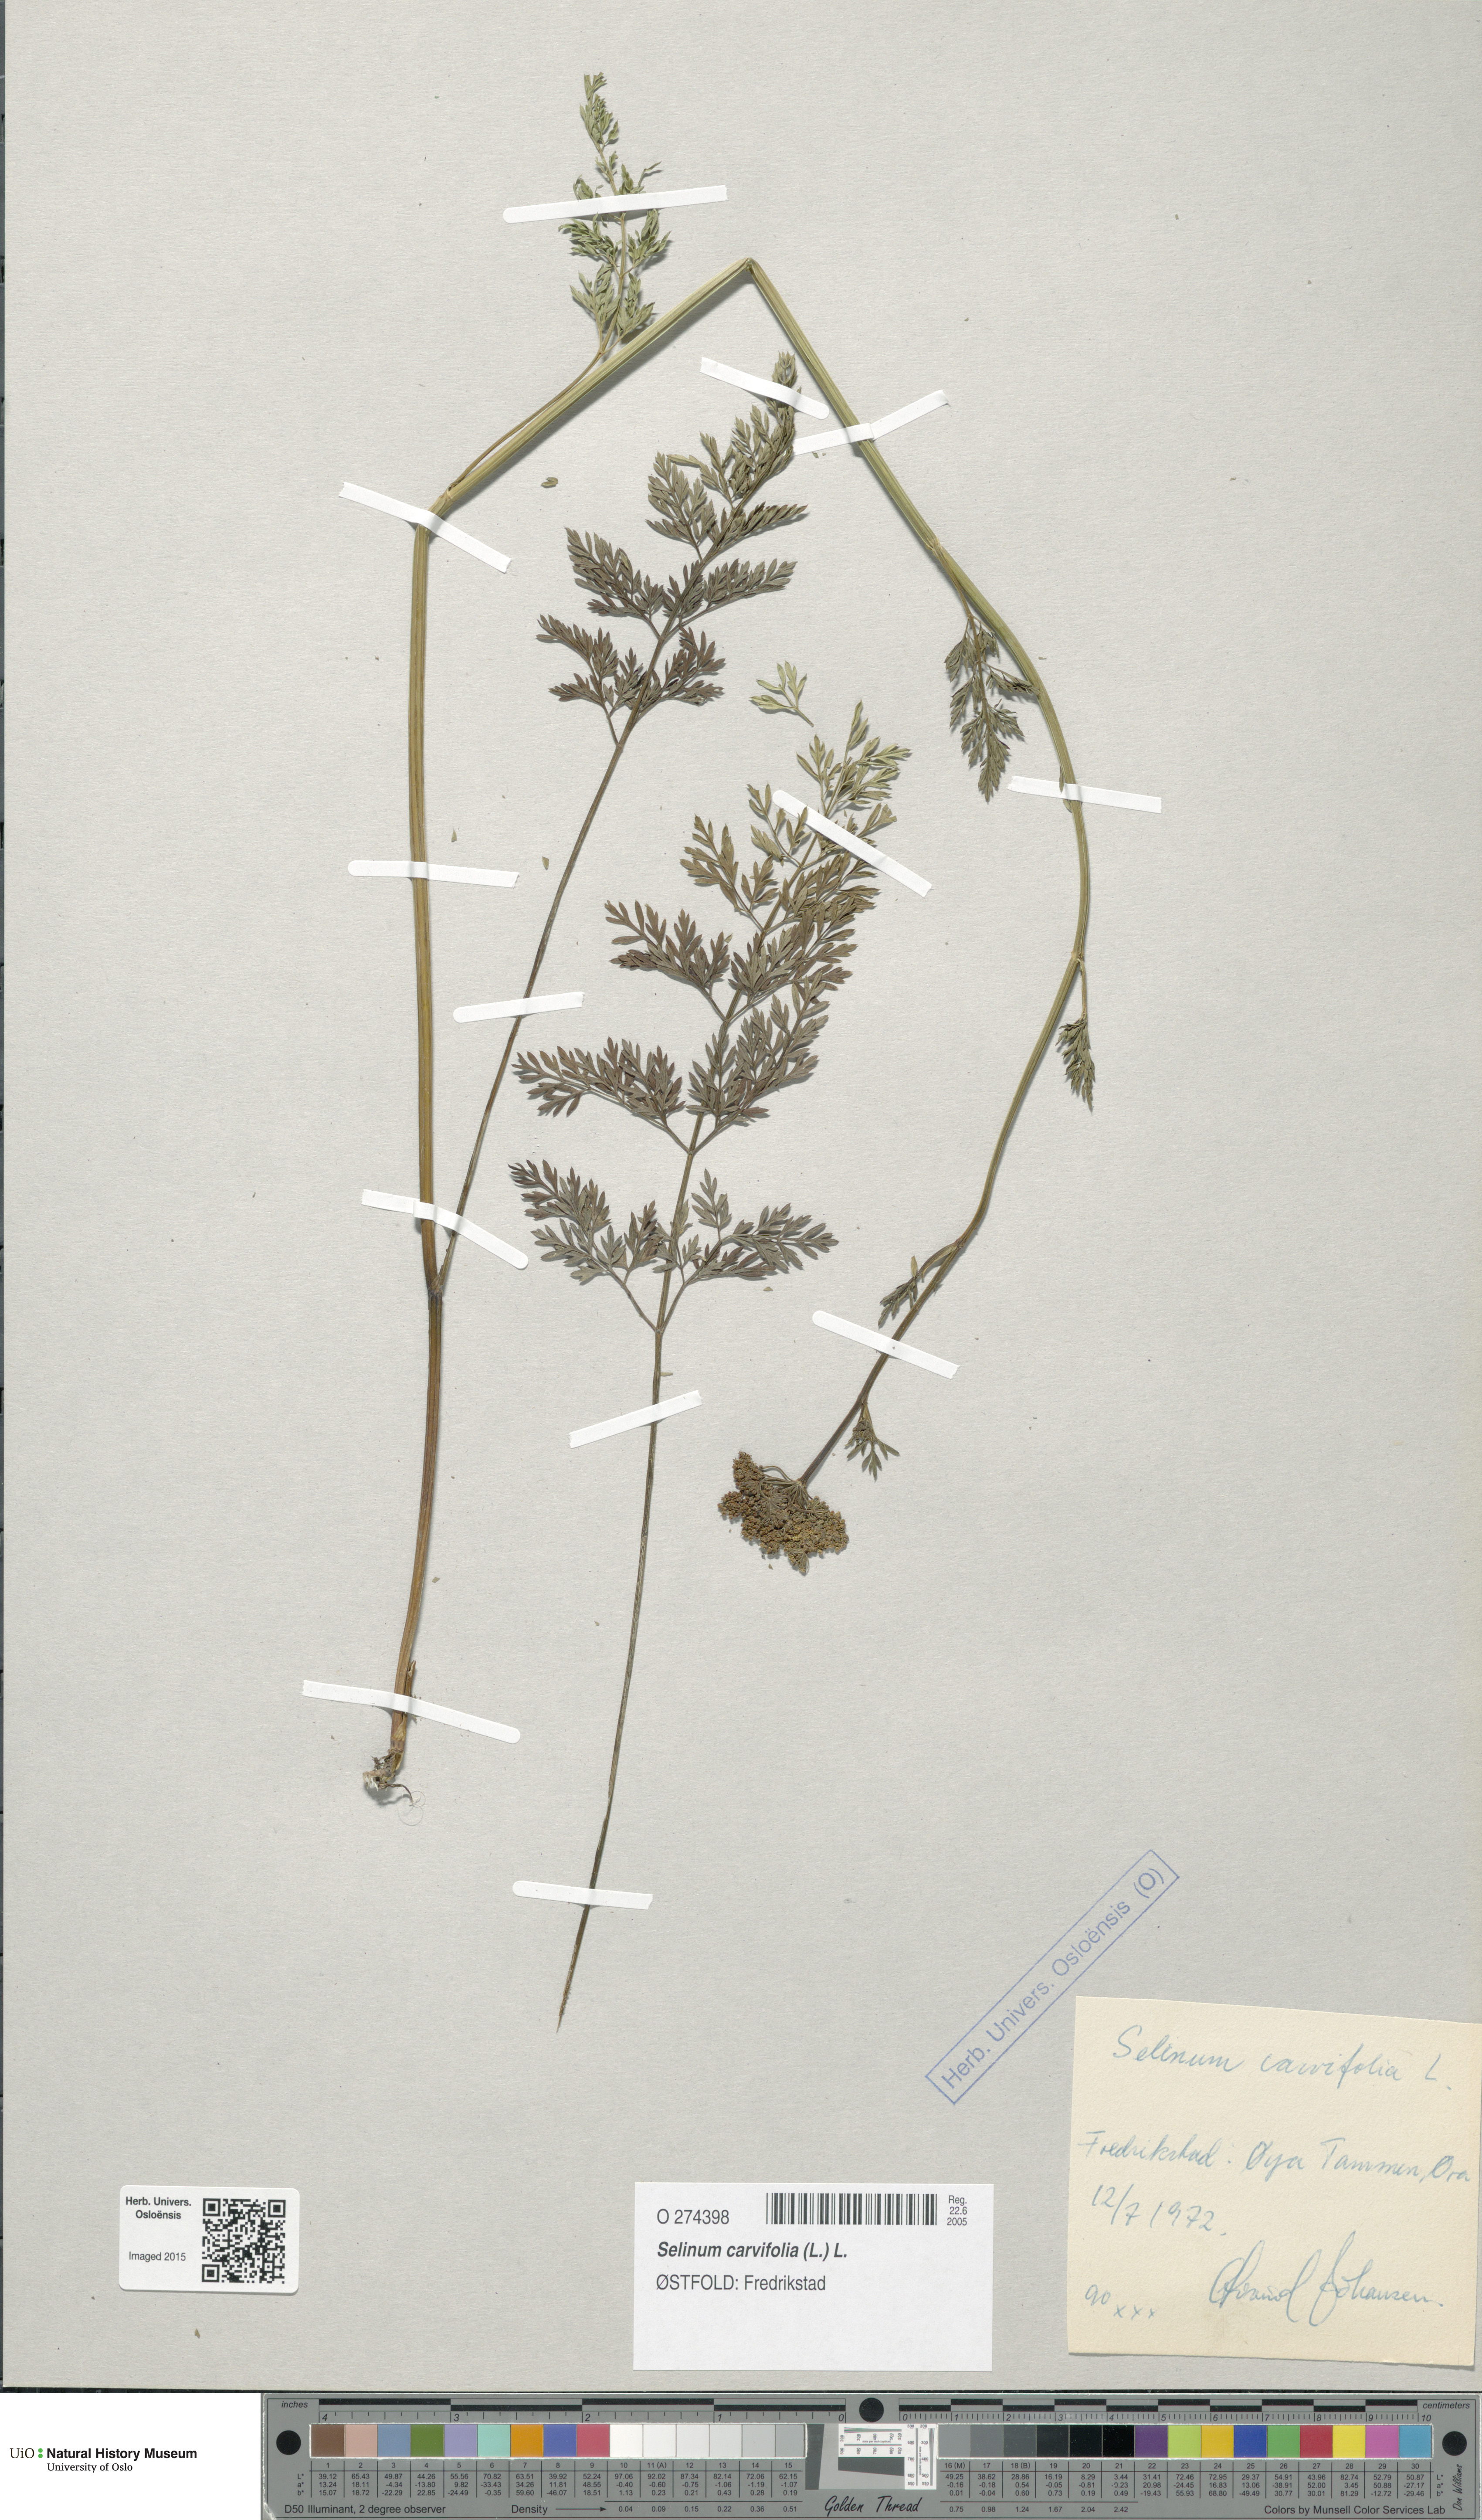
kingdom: Plantae
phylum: Tracheophyta
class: Magnoliopsida
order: Apiales
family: Apiaceae
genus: Selinum
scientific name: Selinum carvifolia
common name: Cambridge milk-parsley
